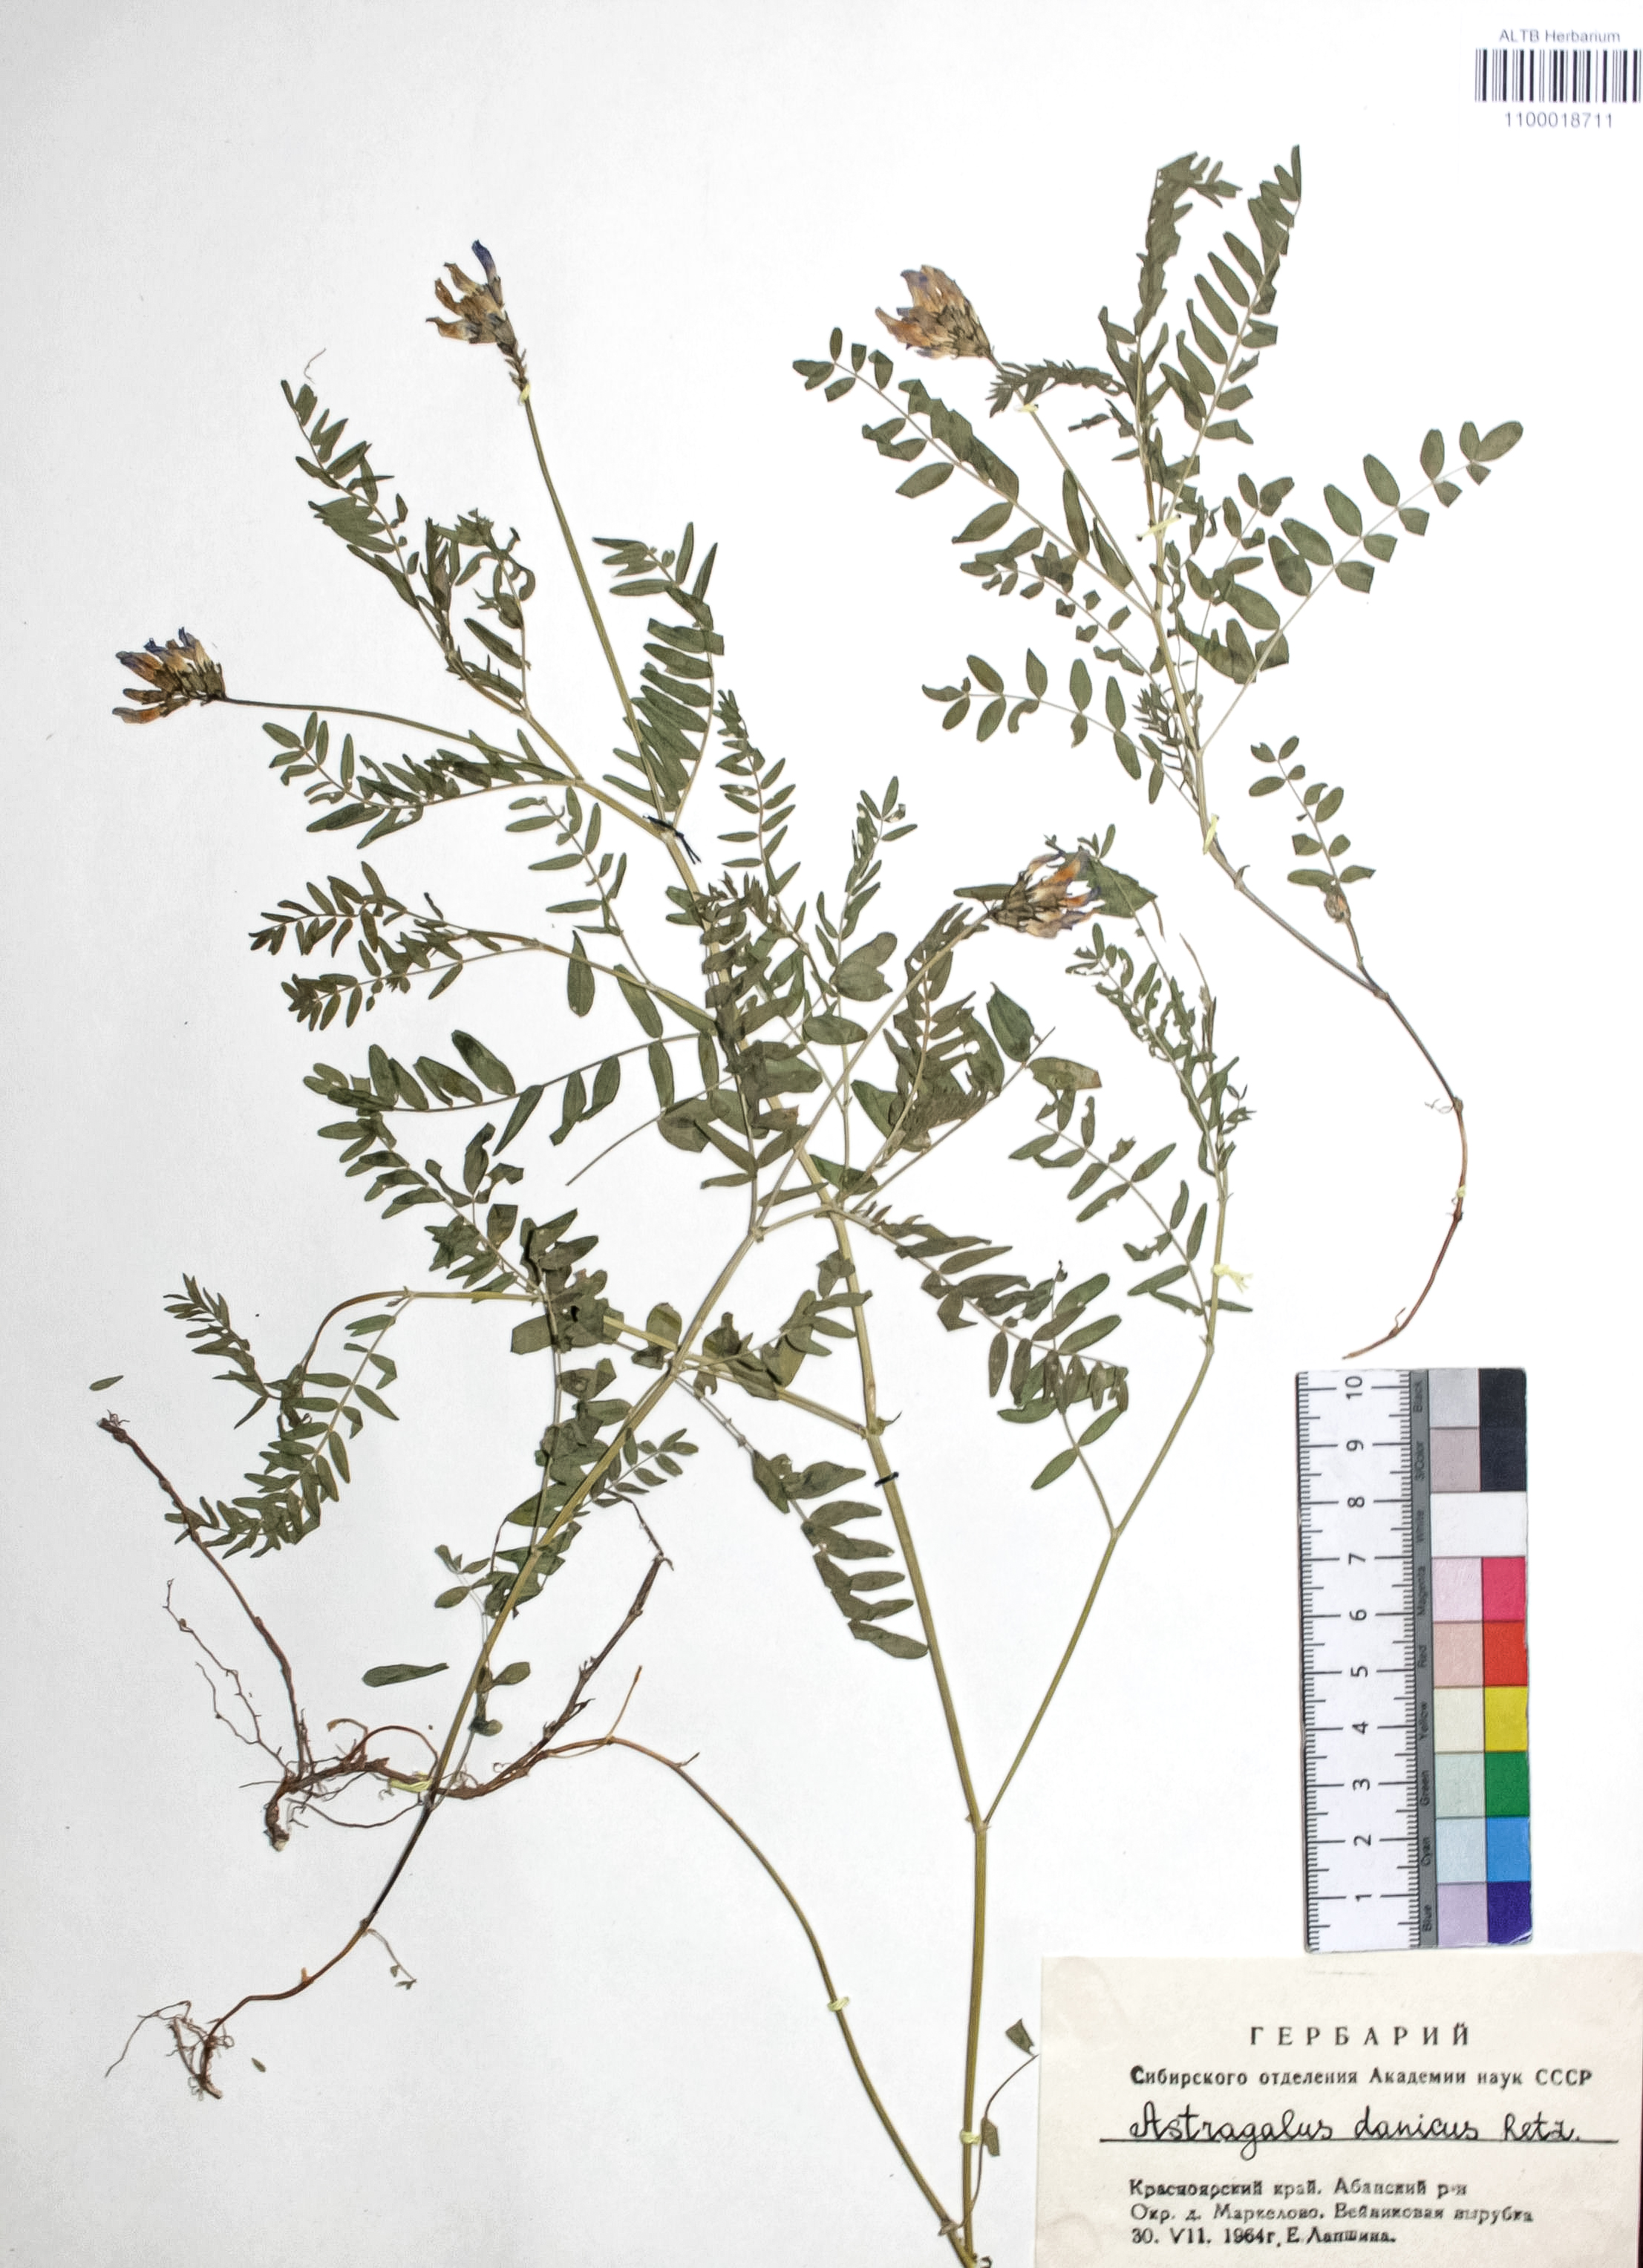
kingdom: Plantae
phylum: Tracheophyta
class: Magnoliopsida
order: Fabales
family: Fabaceae
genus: Astragalus
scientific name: Astragalus danicus
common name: Purple milk-vetch
